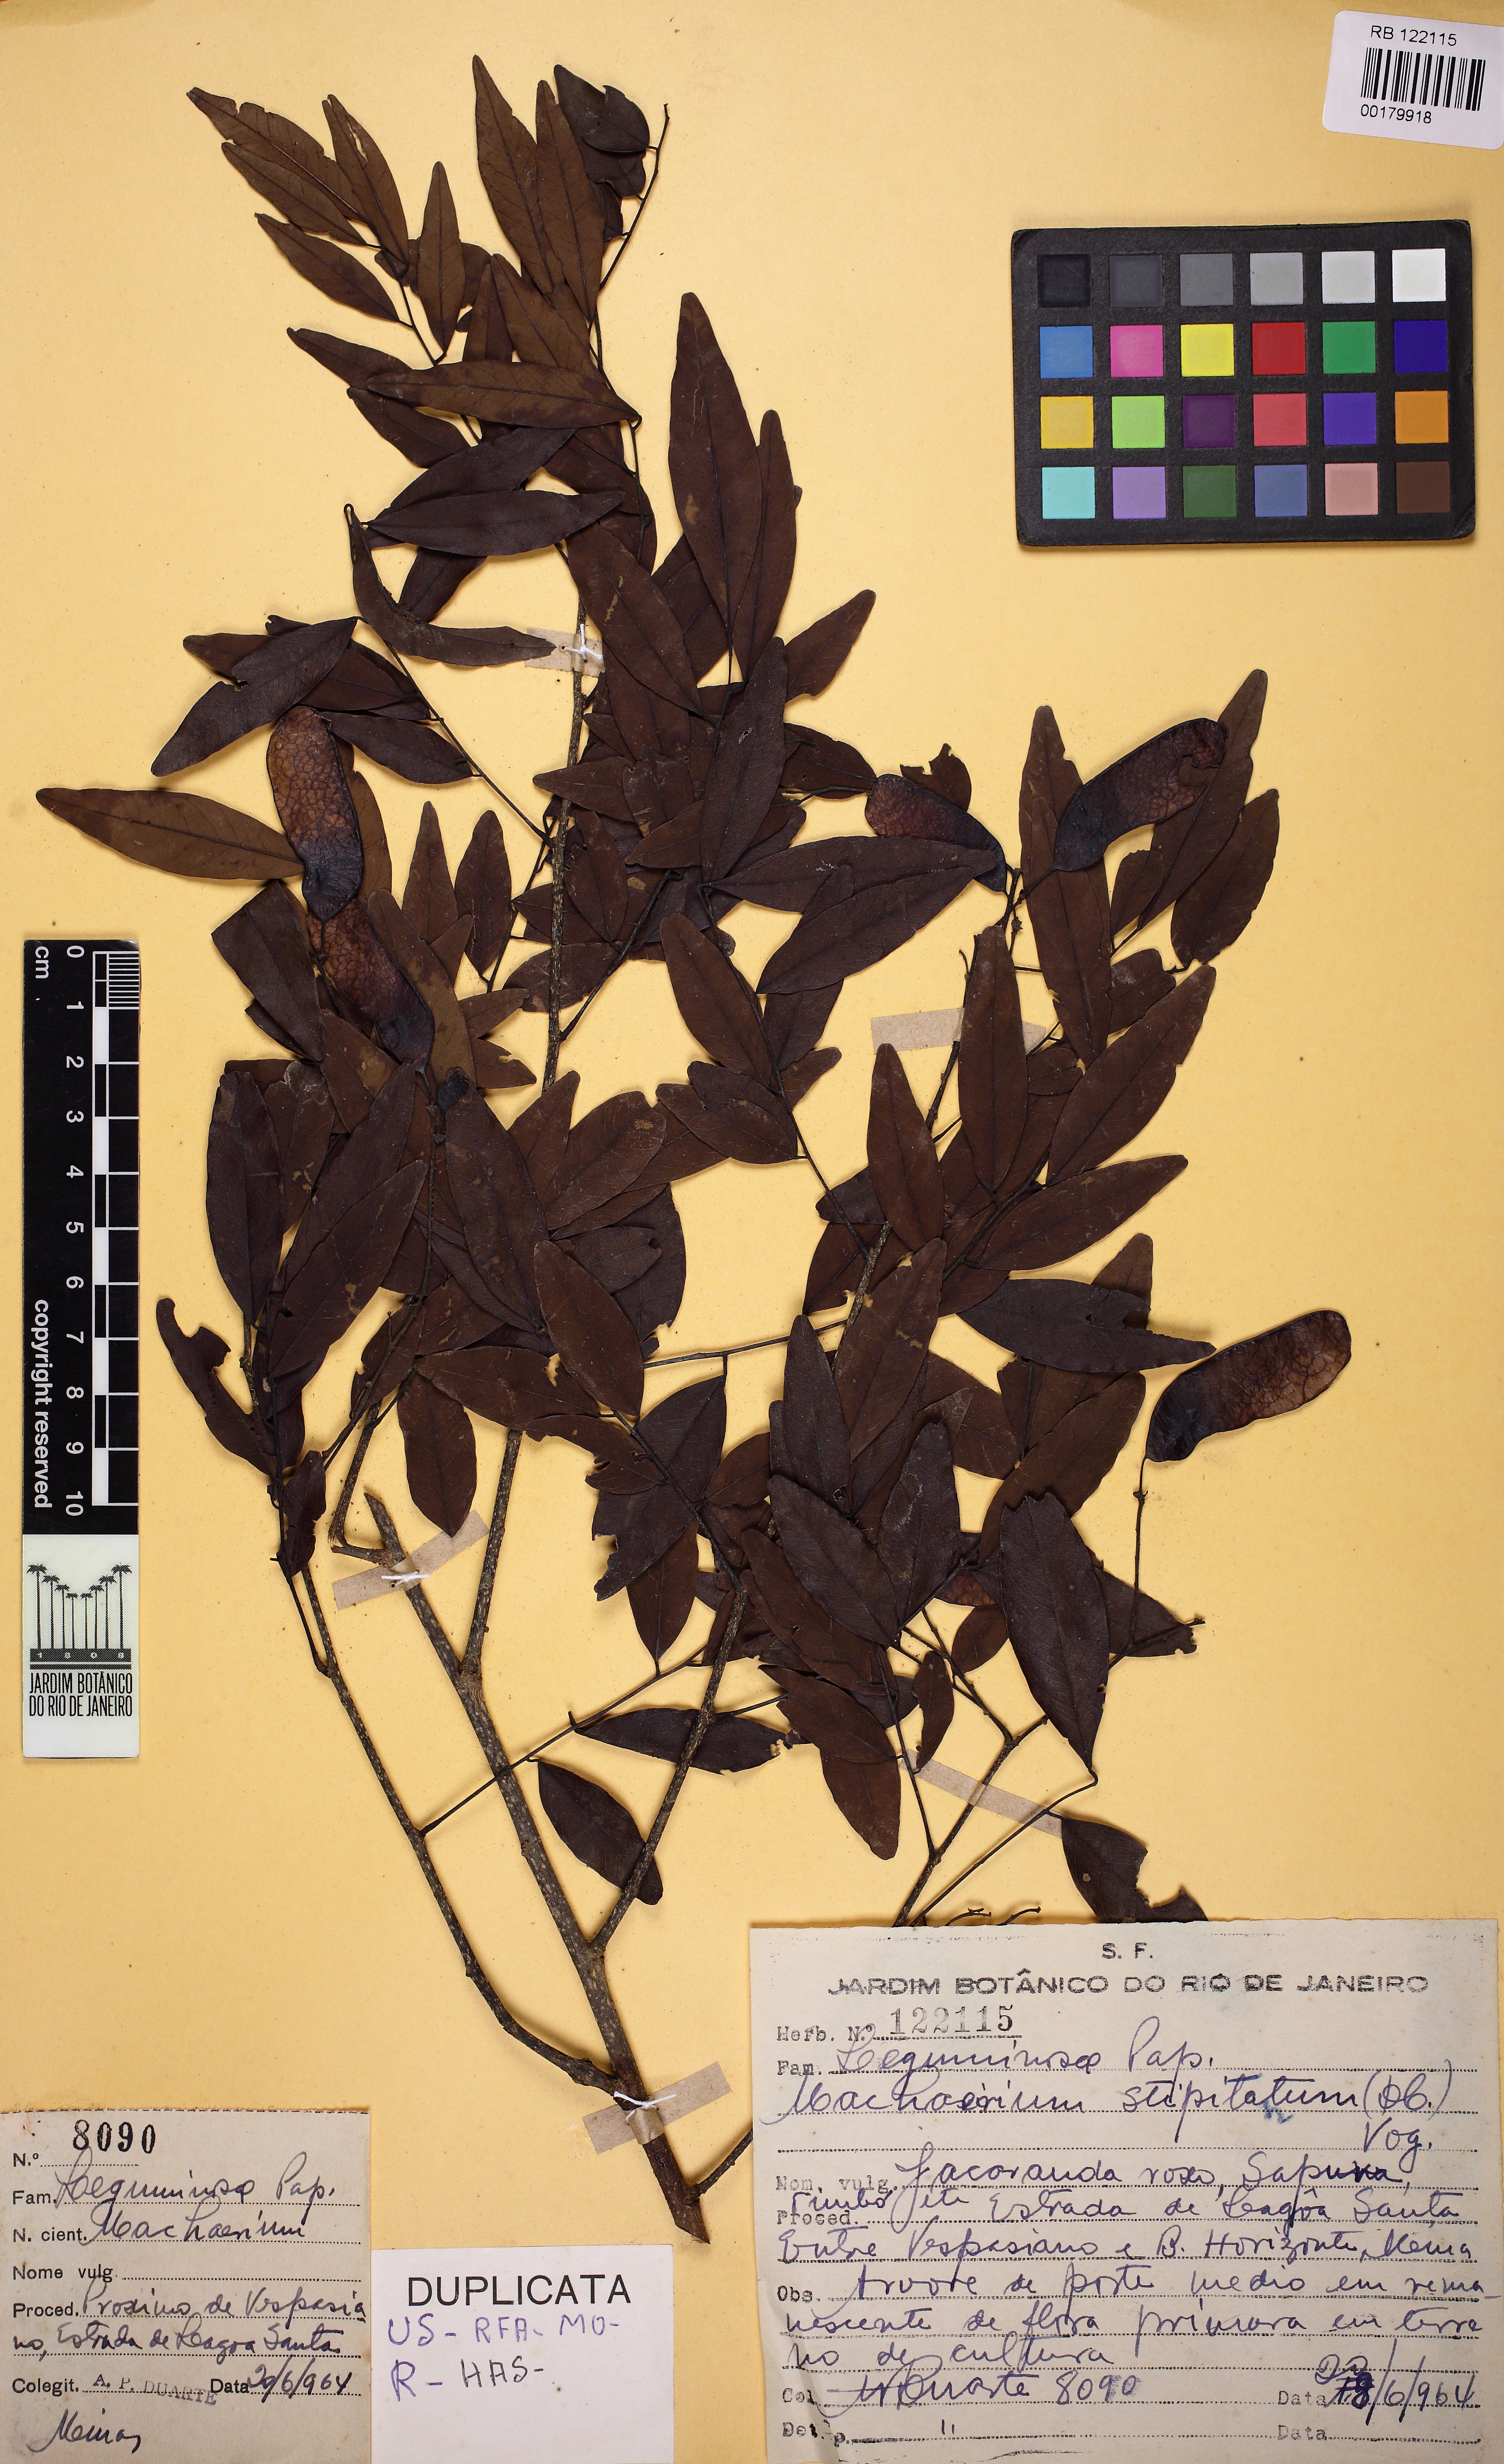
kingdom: Plantae
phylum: Tracheophyta
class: Magnoliopsida
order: Fabales
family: Fabaceae
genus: Machaerium
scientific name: Machaerium stipitatum
